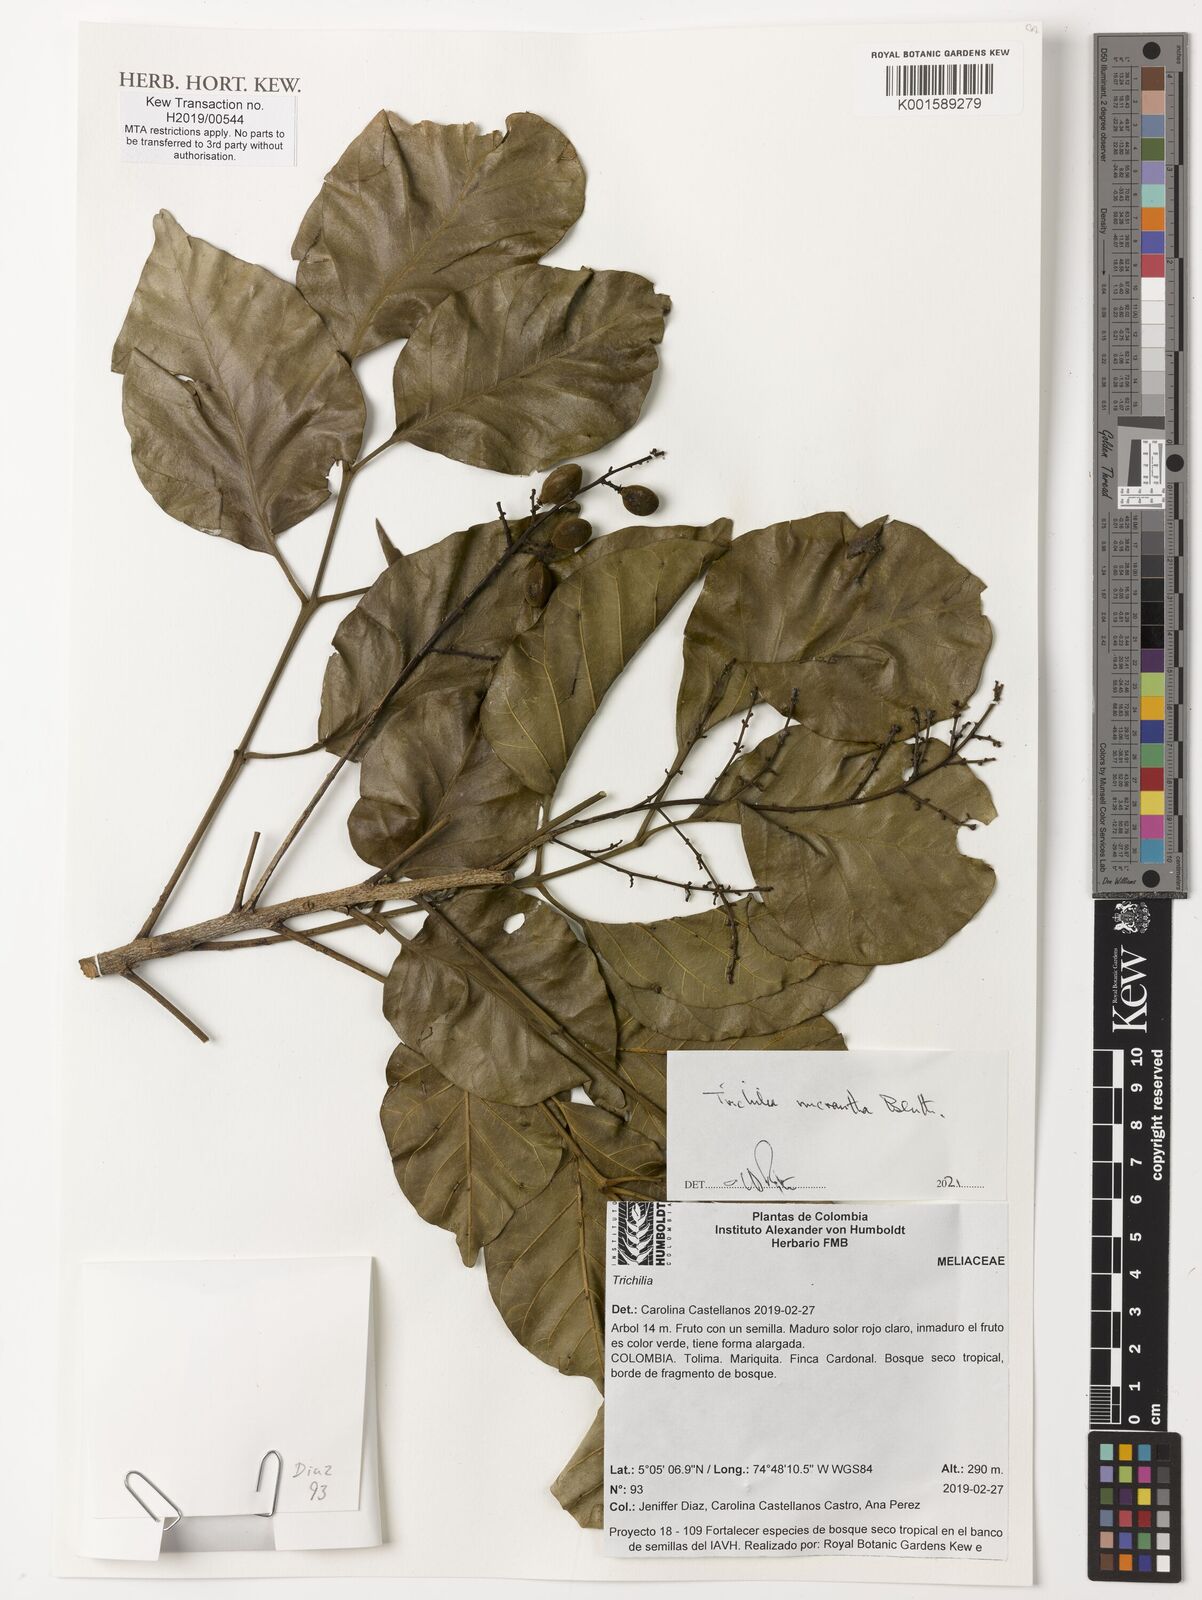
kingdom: Plantae
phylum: Tracheophyta
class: Magnoliopsida
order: Sapindales
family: Meliaceae
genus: Trichilia
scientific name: Trichilia micrantha
